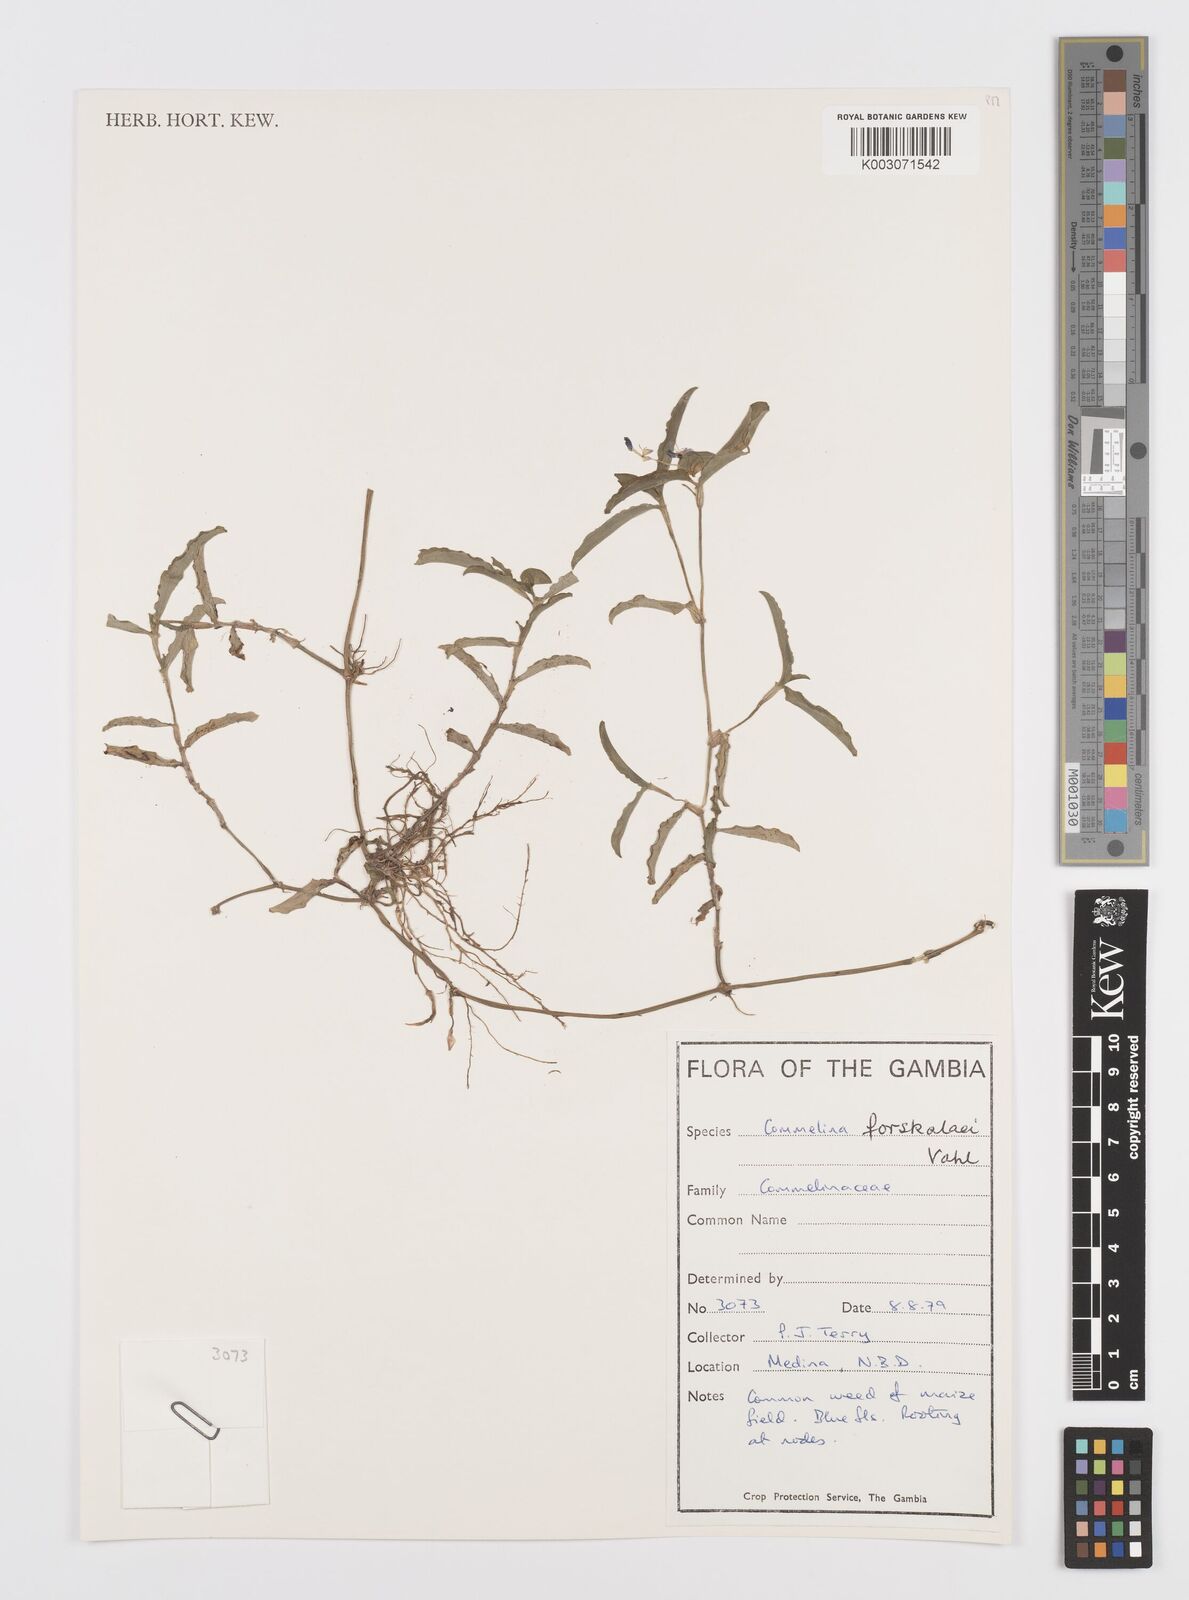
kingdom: Plantae
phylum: Tracheophyta
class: Liliopsida
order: Commelinales
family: Commelinaceae
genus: Commelina
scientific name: Commelina forskaolii
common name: Rat's ear
